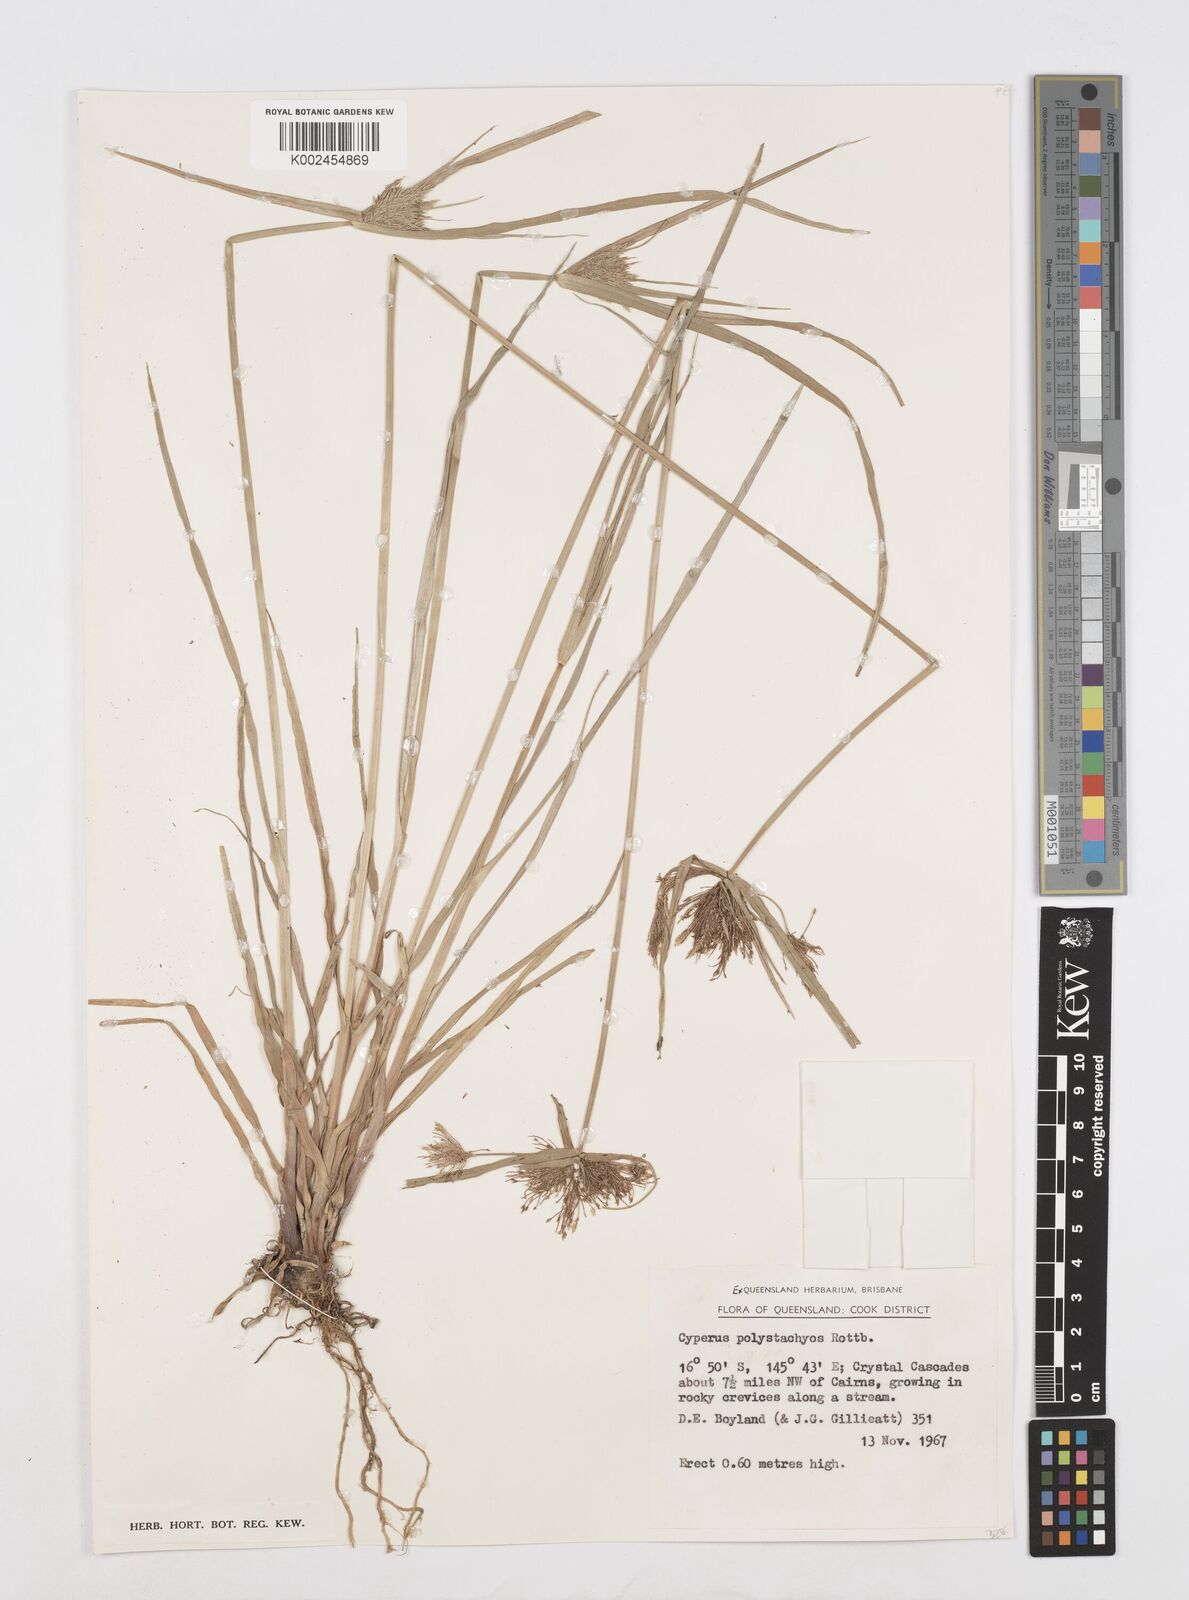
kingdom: Plantae
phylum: Tracheophyta
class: Liliopsida
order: Poales
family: Cyperaceae
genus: Cyperus
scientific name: Cyperus polystachyos
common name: Bunchy flat sedge
